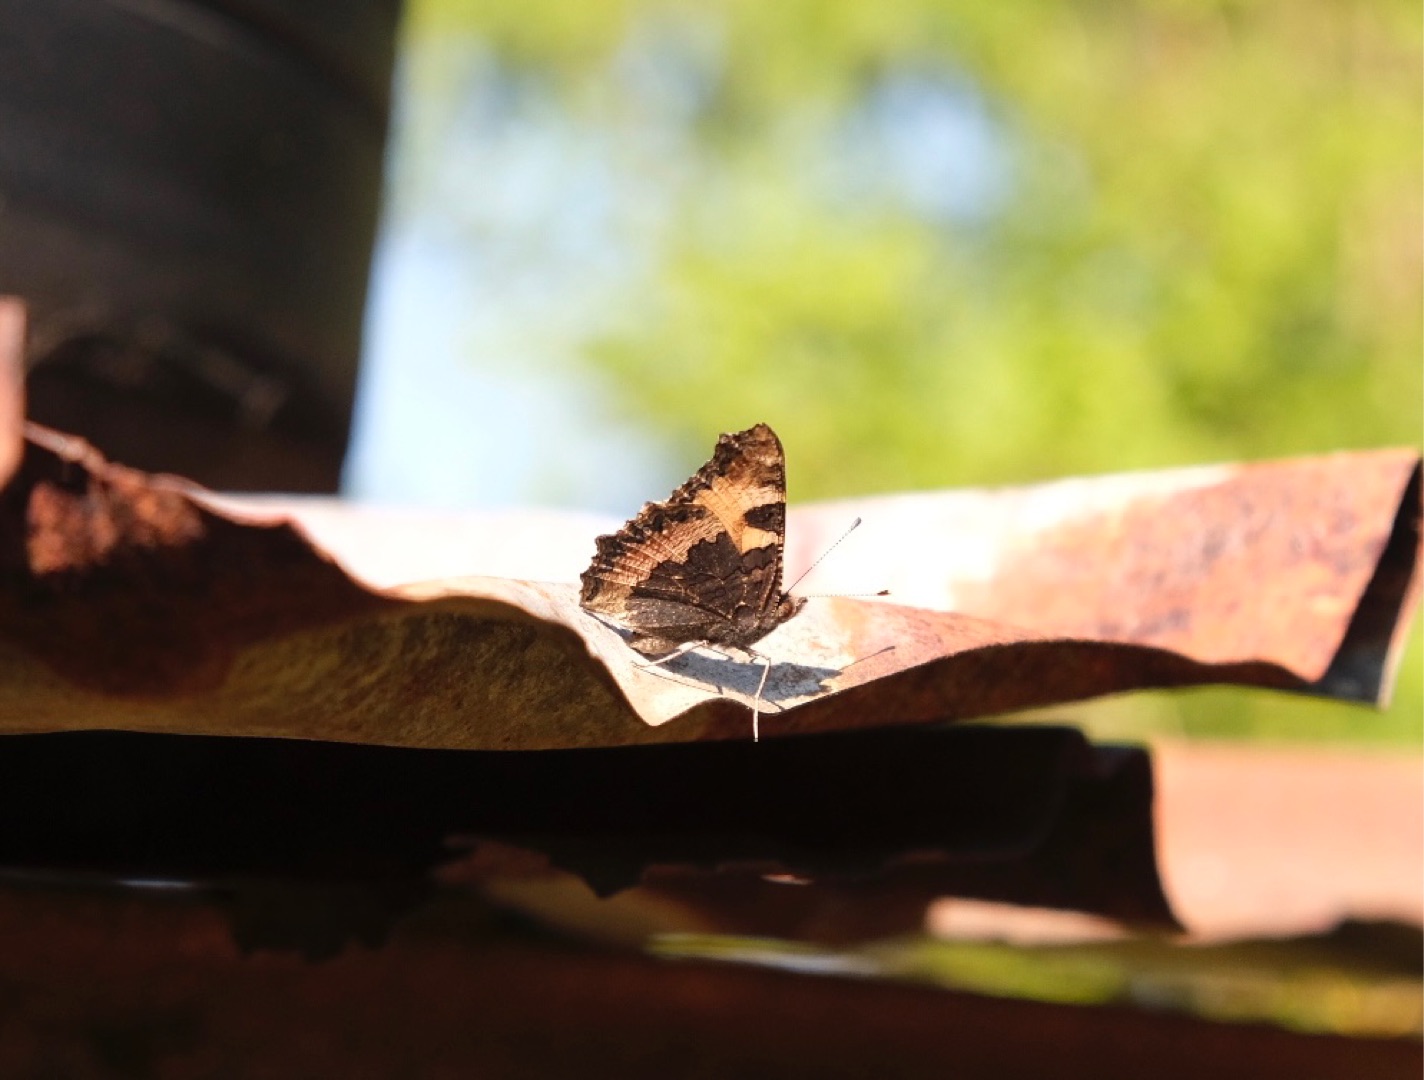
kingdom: Animalia
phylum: Arthropoda
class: Insecta
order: Lepidoptera
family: Nymphalidae
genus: Aglais
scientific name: Aglais urticae
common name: Nældens takvinge
